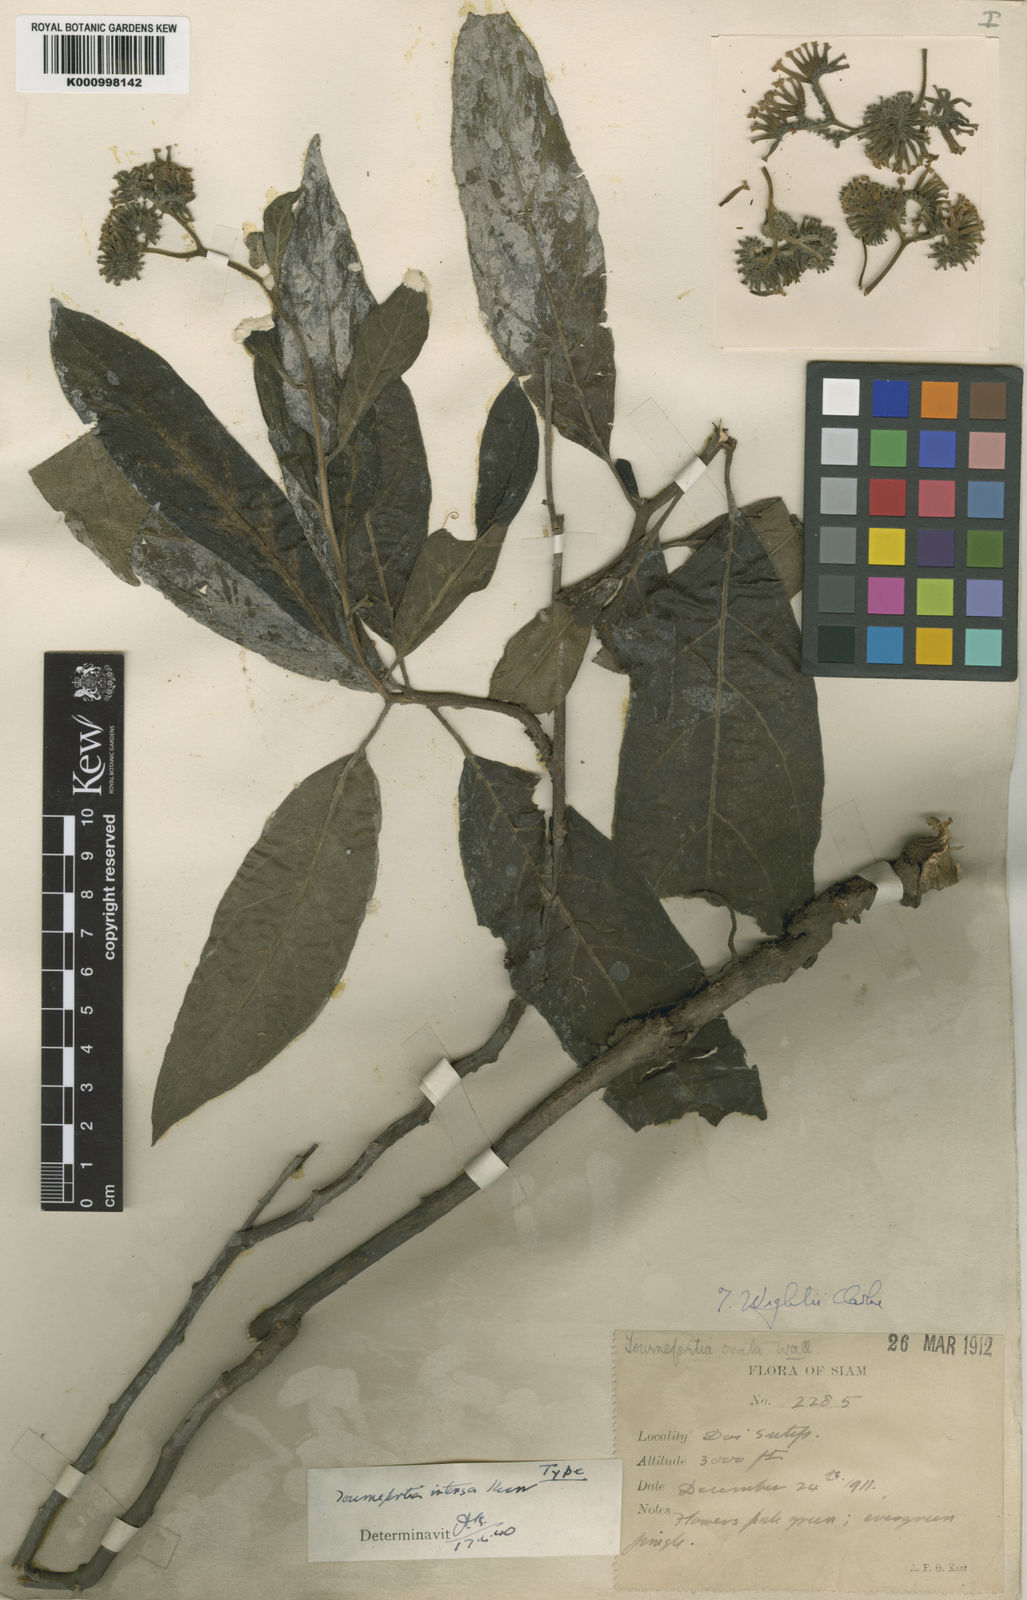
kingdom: Plantae
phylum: Tracheophyta
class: Magnoliopsida
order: Boraginales
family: Heliotropiaceae
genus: Tournefortia
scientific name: Tournefortia intonsa
